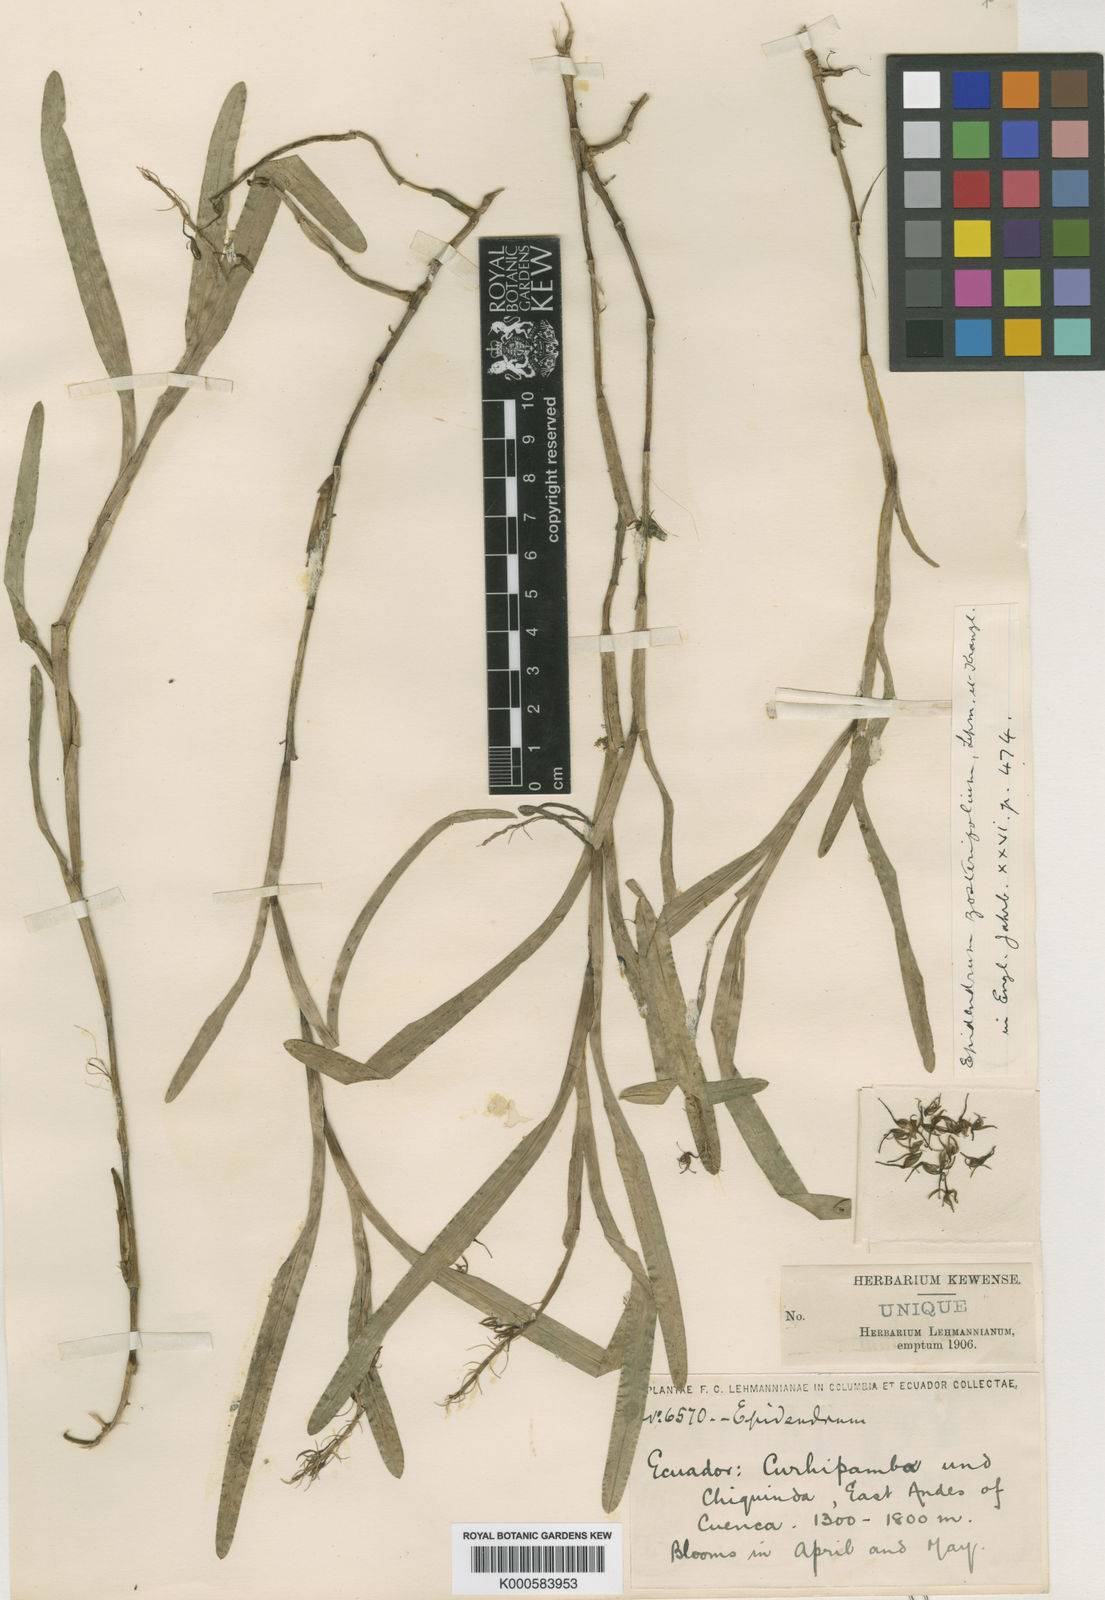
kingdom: Plantae
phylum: Tracheophyta
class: Liliopsida
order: Asparagales
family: Orchidaceae
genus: Epidendrum
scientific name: Epidendrum zosterifolium
